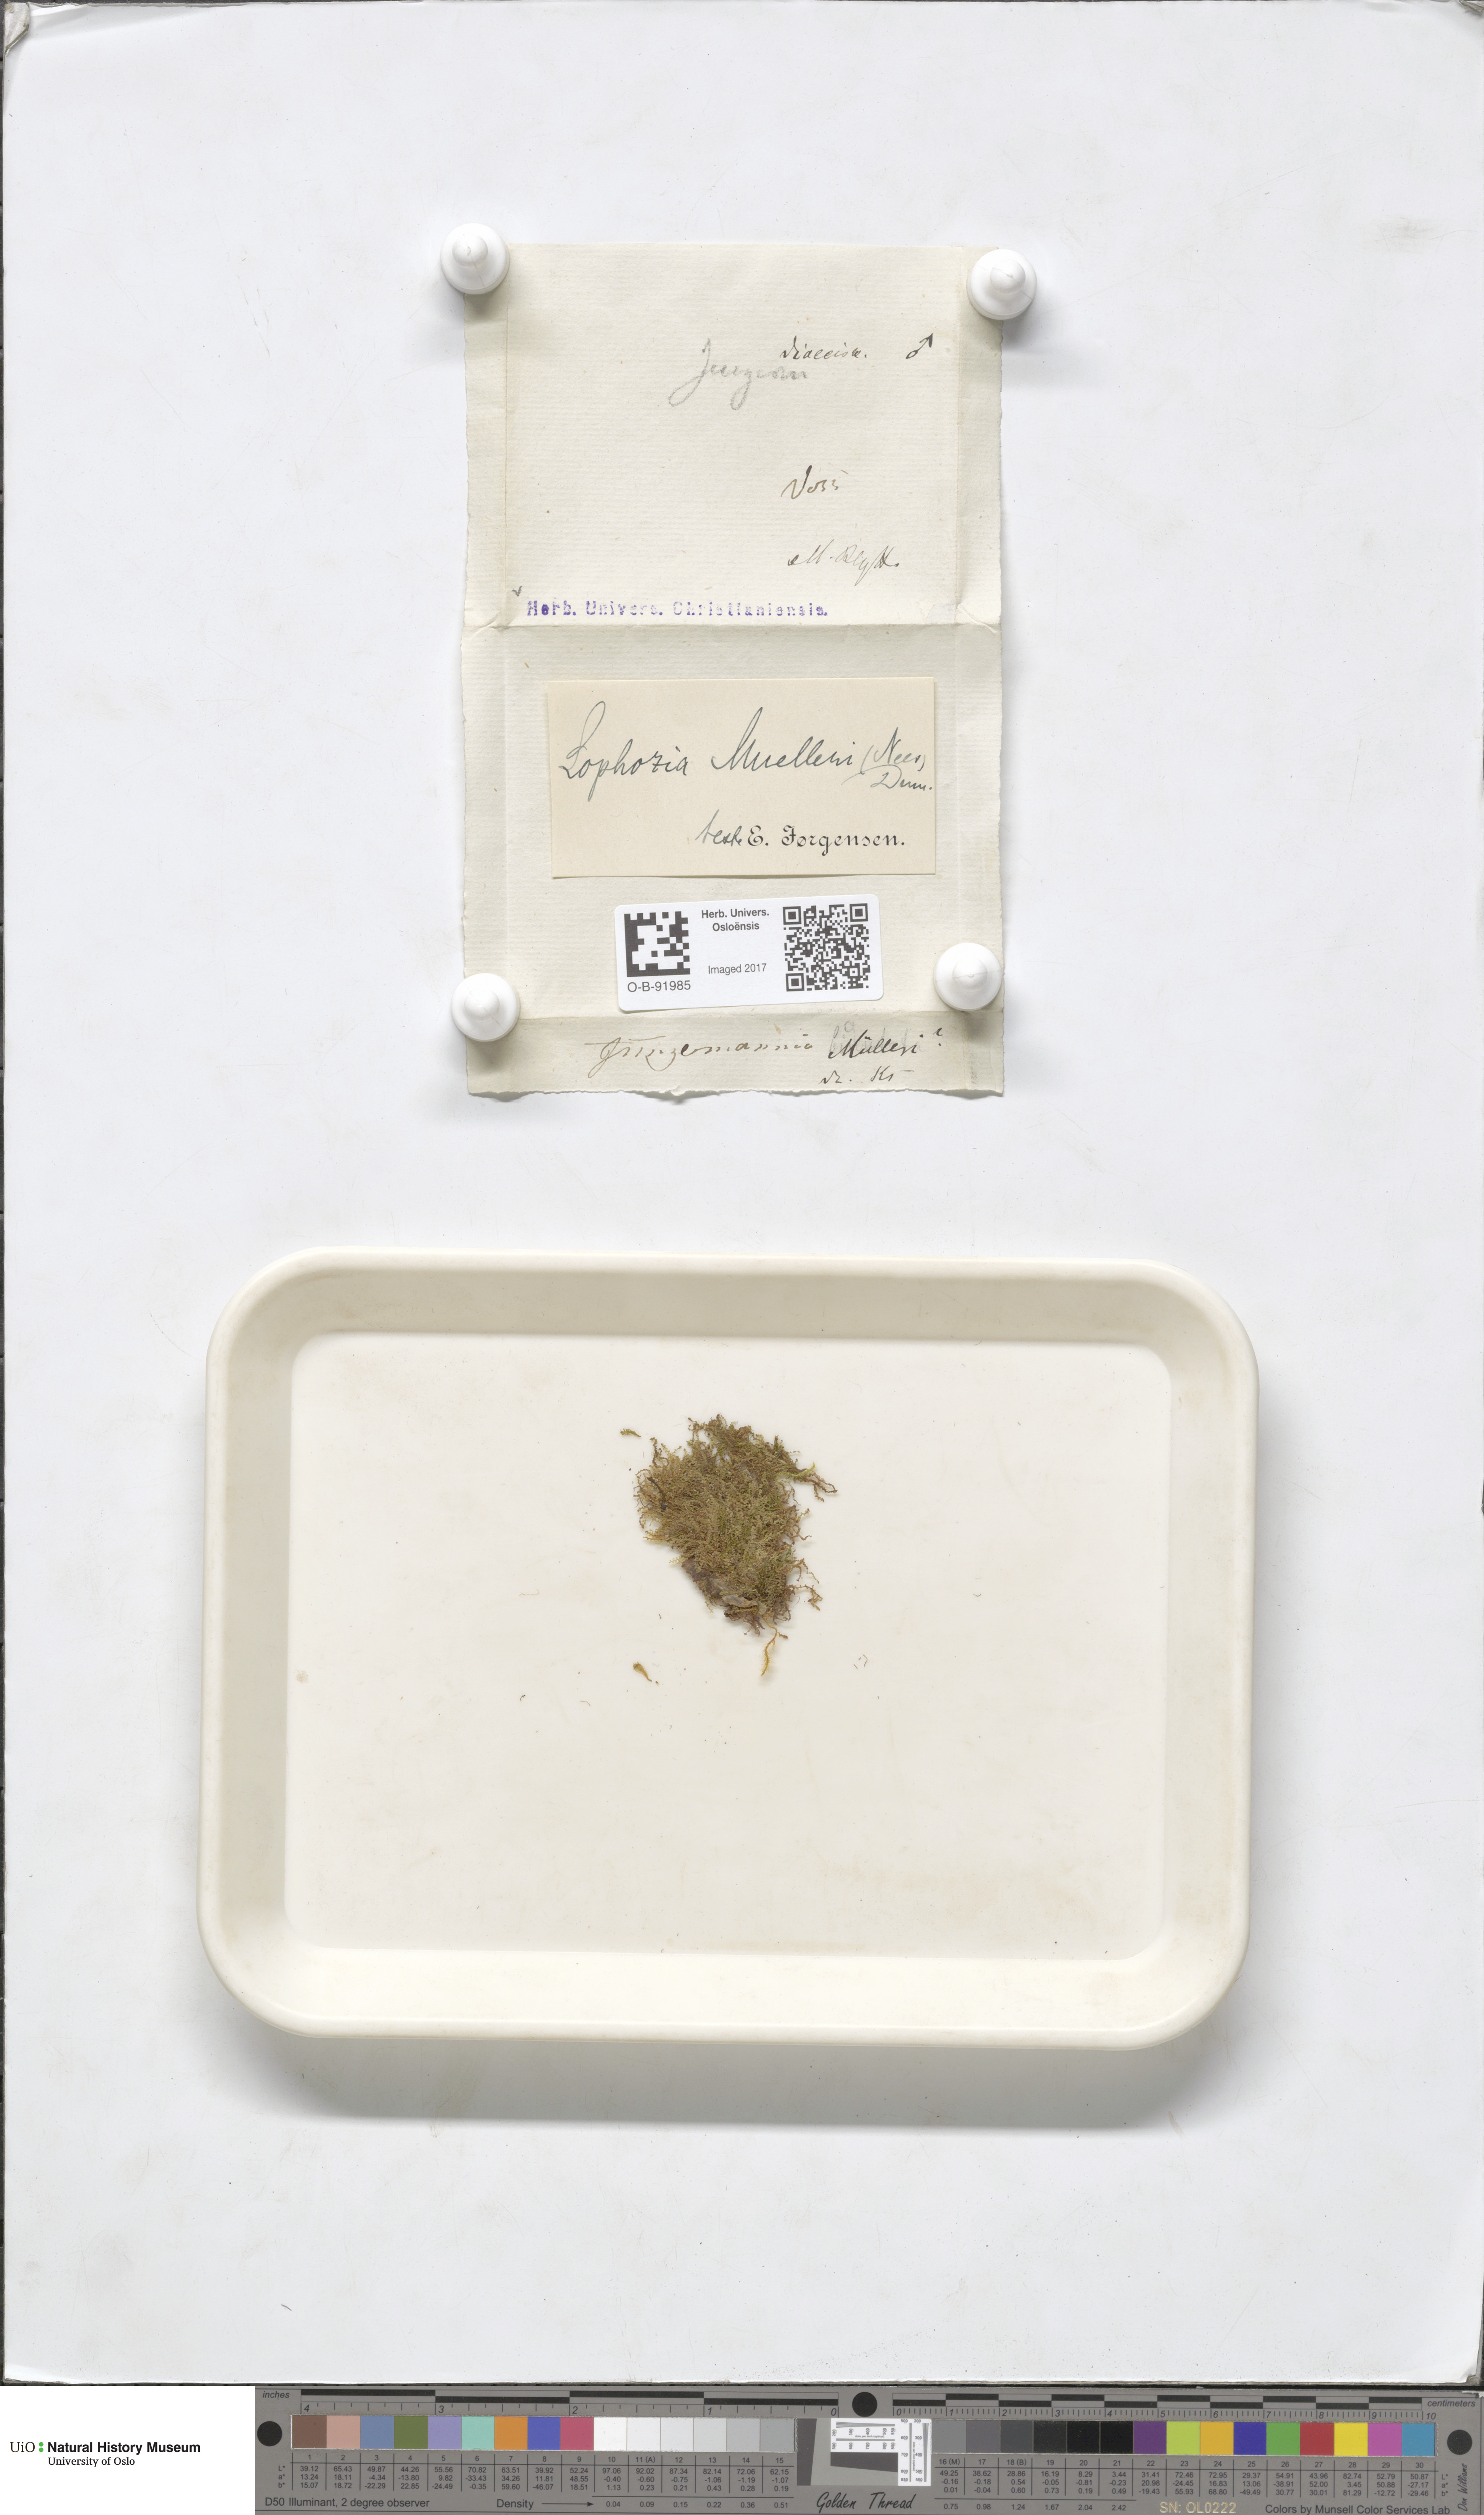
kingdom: Plantae
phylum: Marchantiophyta
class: Jungermanniopsida
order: Jungermanniales
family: Jungermanniaceae
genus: Mesoptychia
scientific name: Mesoptychia collaris
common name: Collared notchwort
